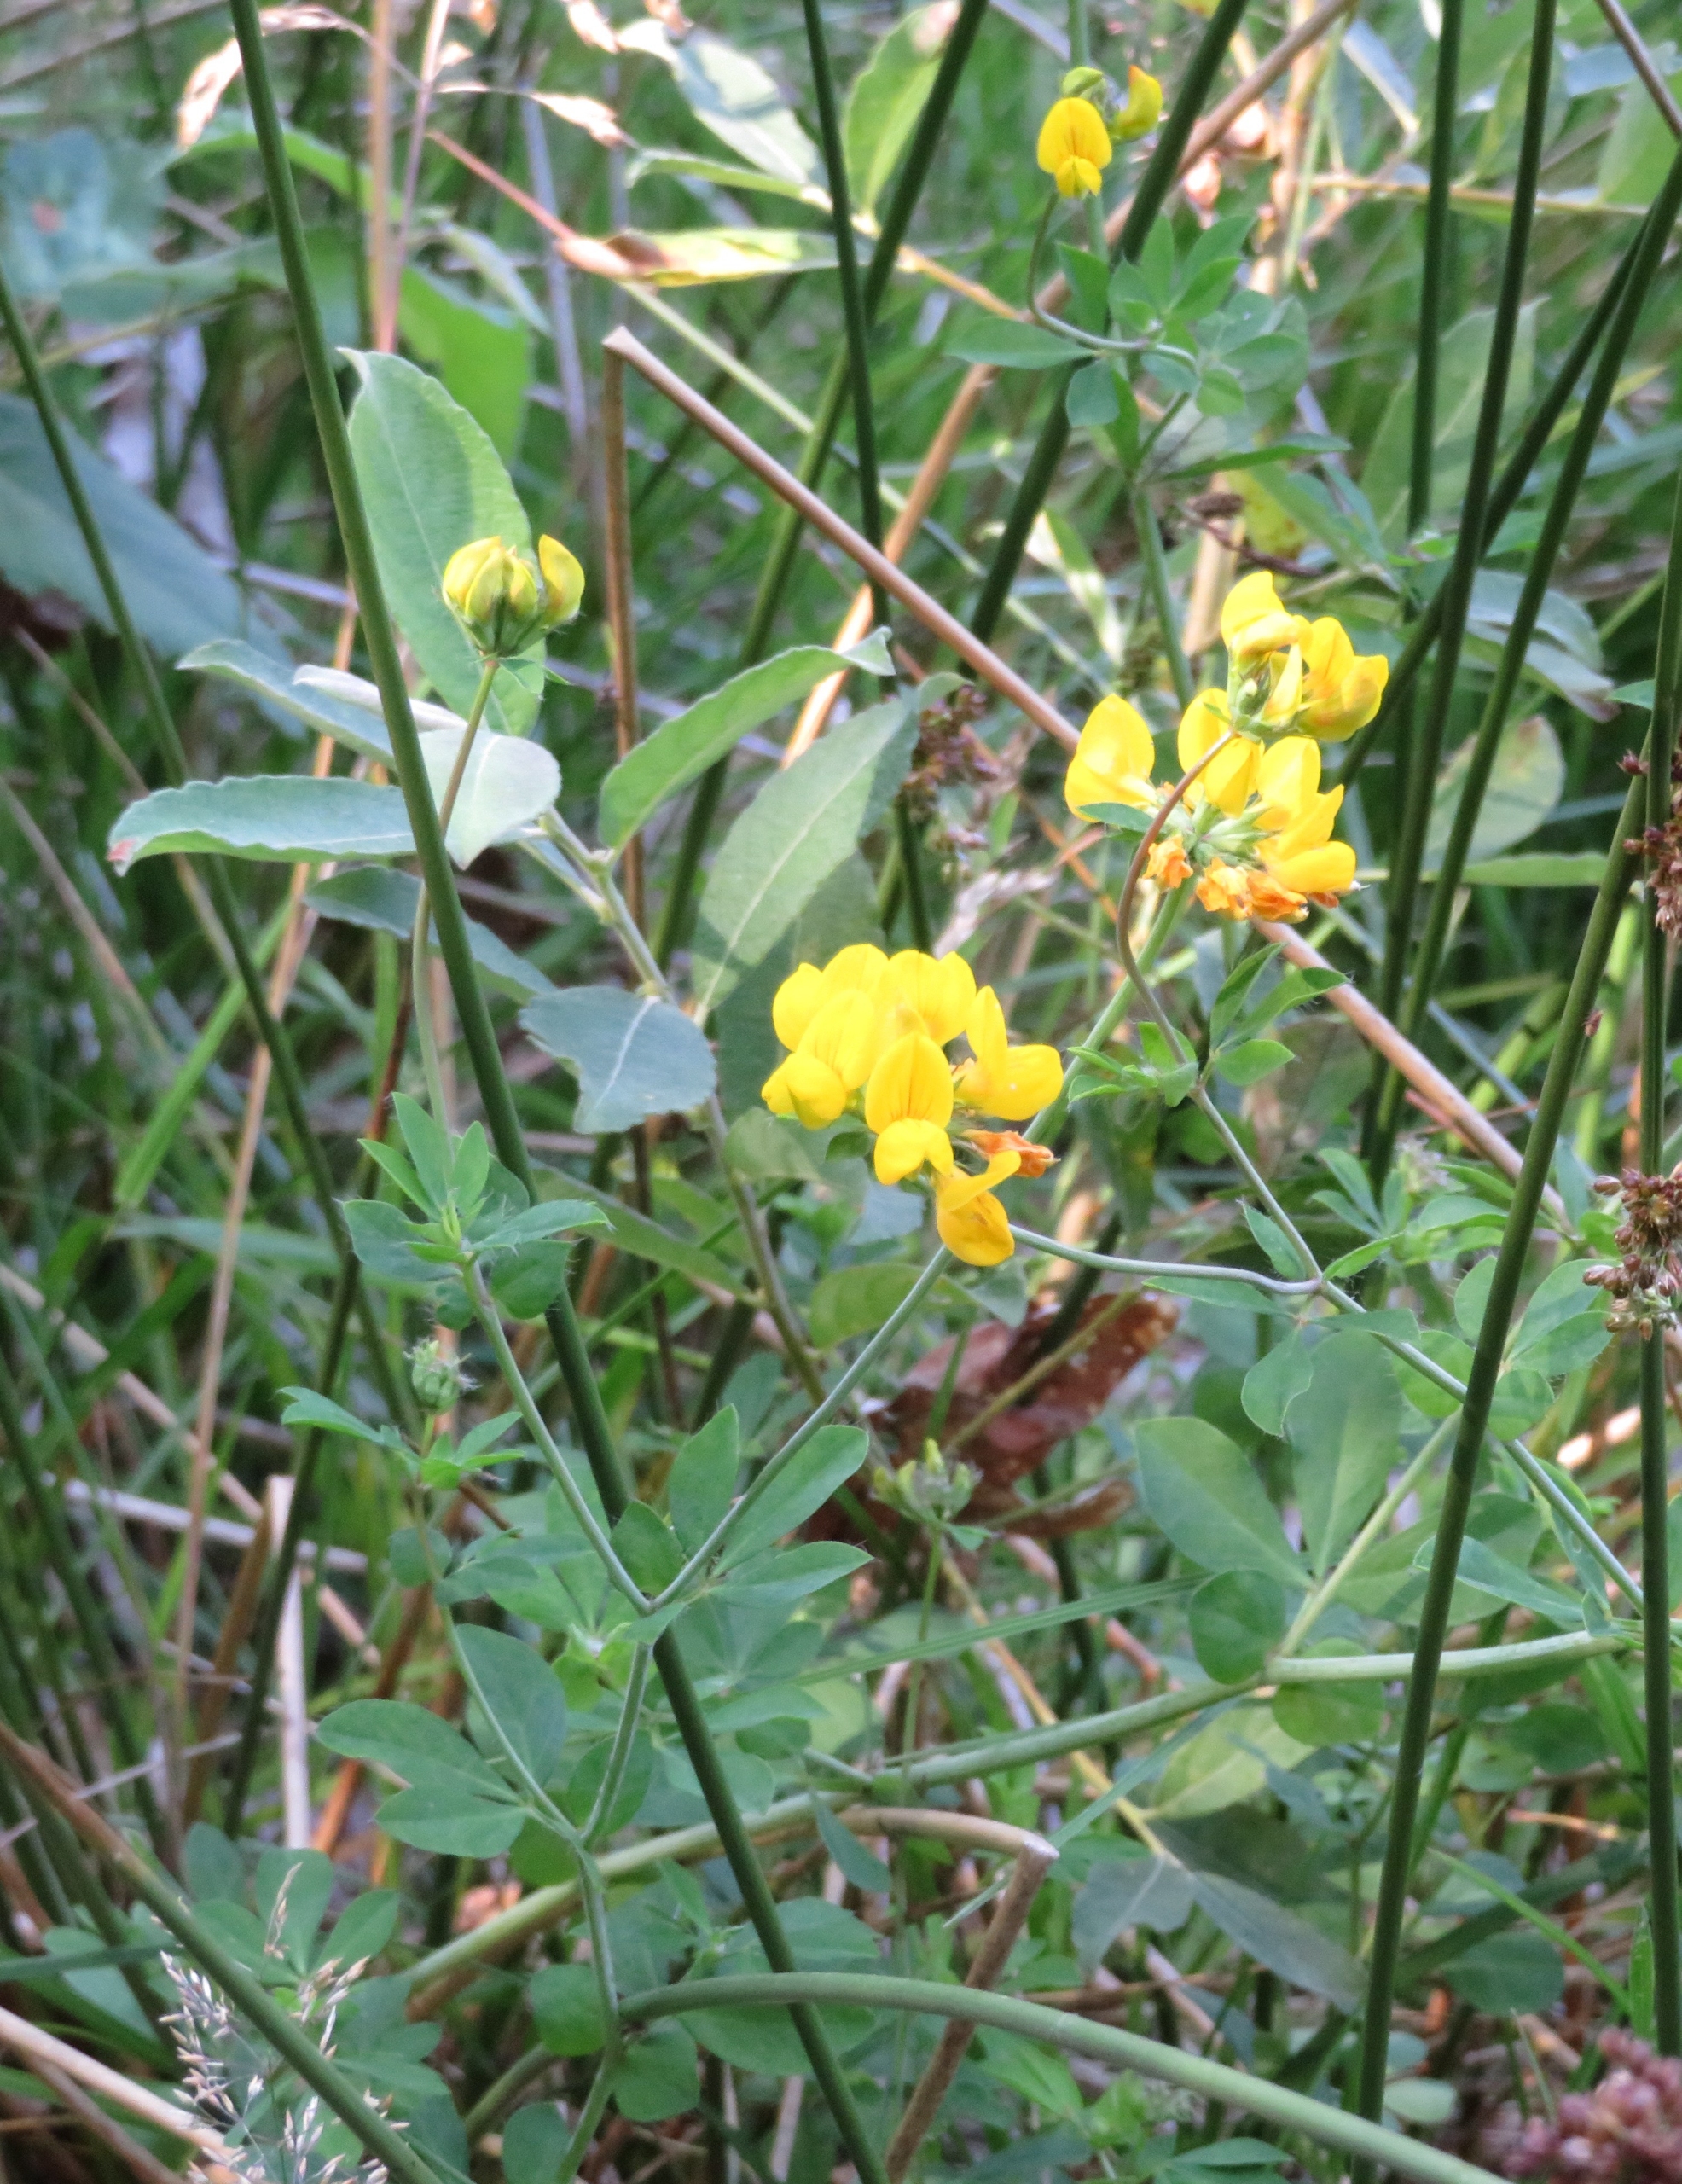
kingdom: Plantae
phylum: Tracheophyta
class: Magnoliopsida
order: Fabales
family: Fabaceae
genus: Lotus
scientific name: Lotus corniculatus
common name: Almindelig kællingetand
